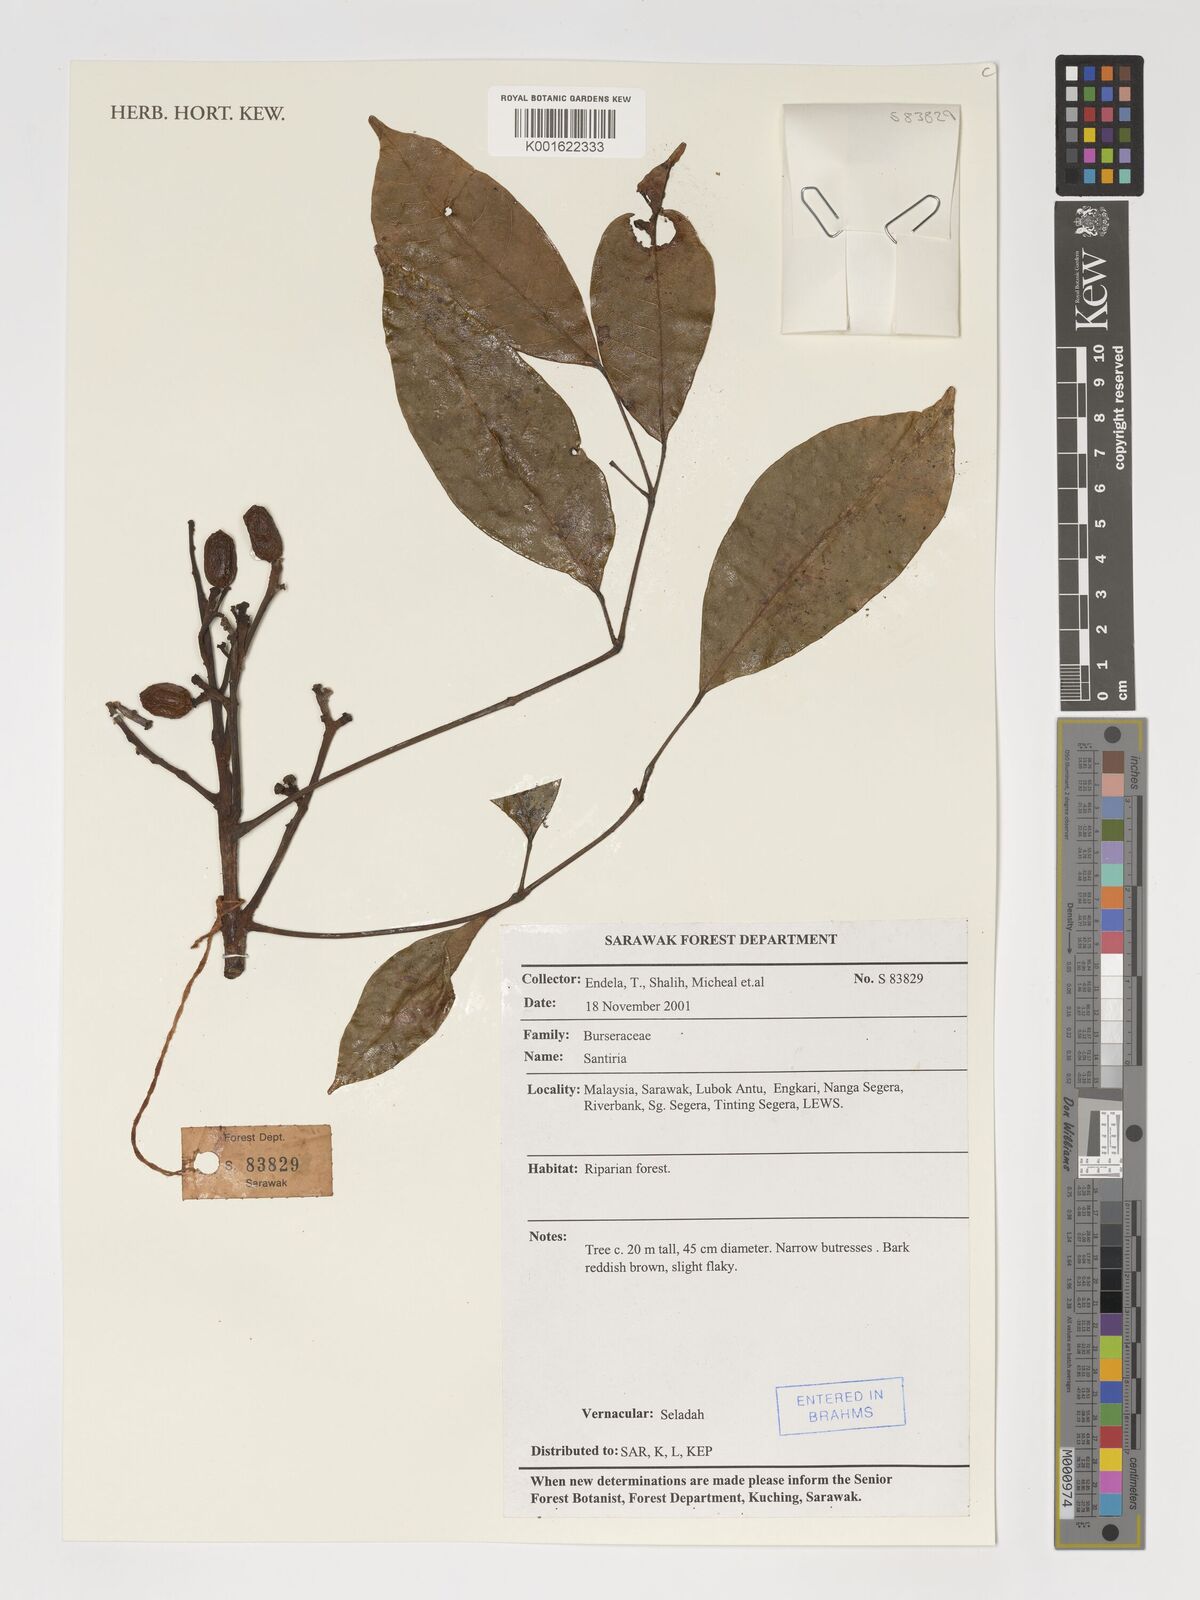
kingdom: Plantae
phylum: Tracheophyta
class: Magnoliopsida
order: Sapindales
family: Burseraceae
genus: Santiria
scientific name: Santiria
